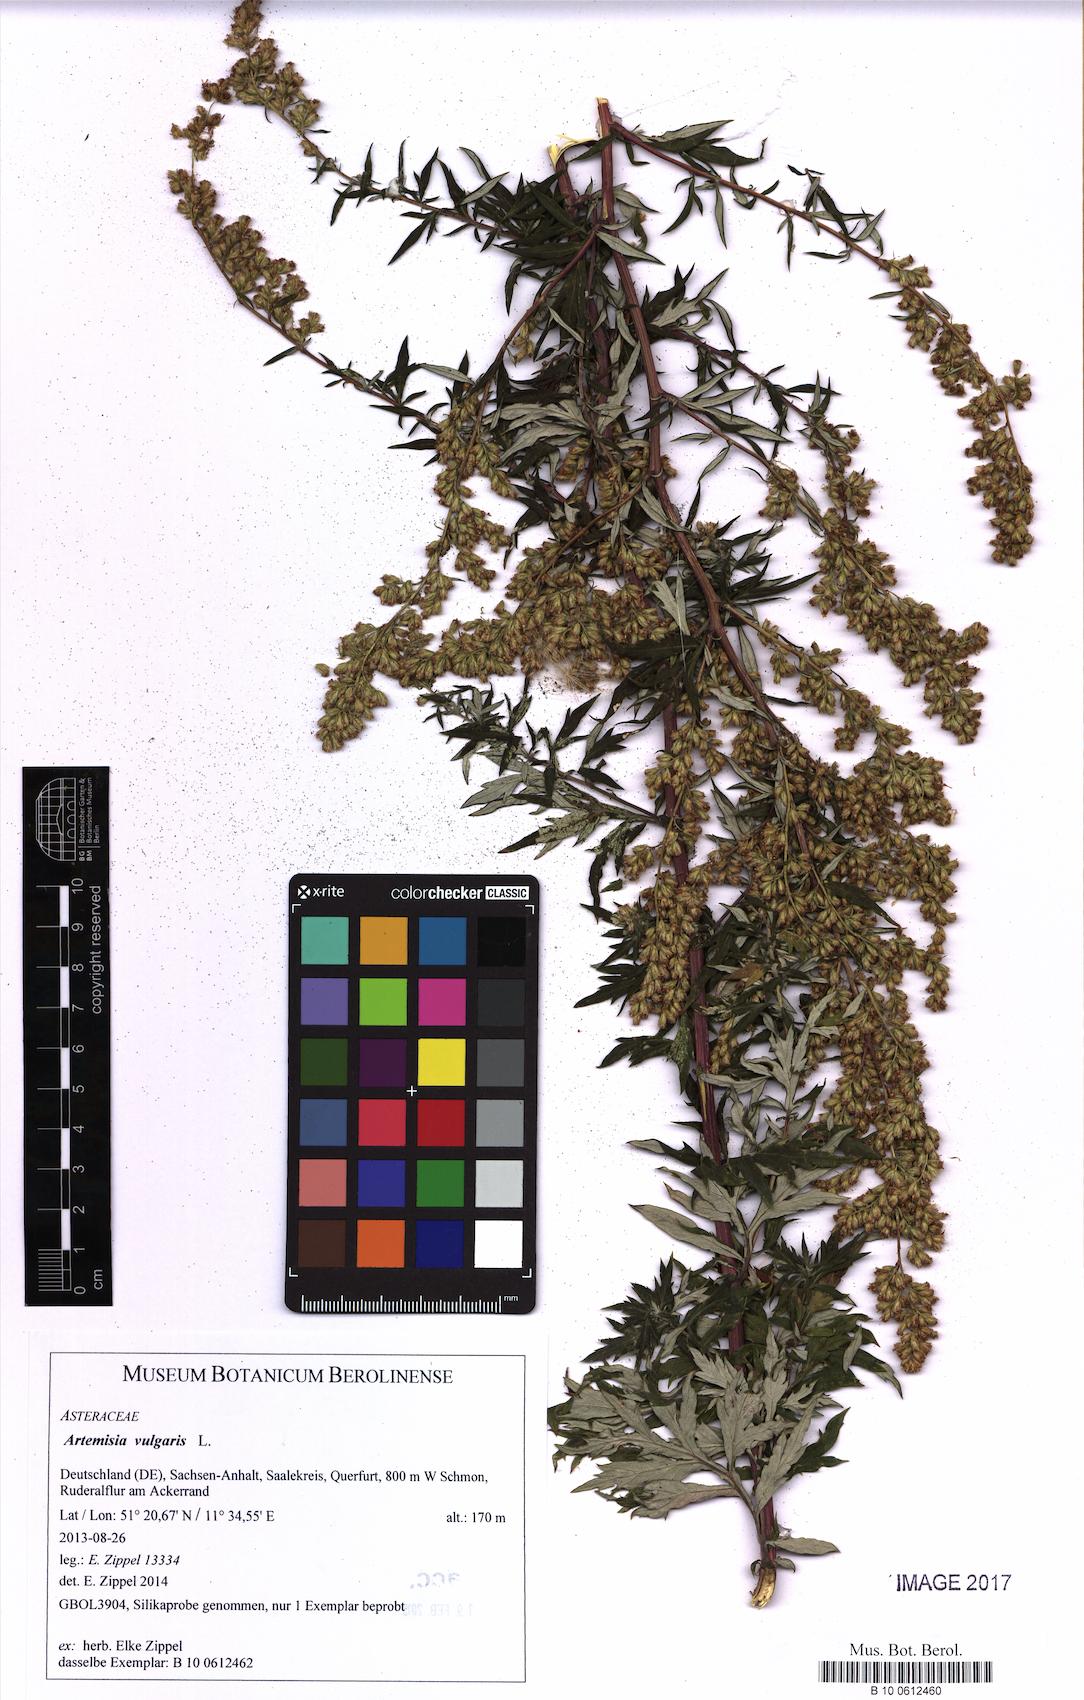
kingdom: Plantae
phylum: Tracheophyta
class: Magnoliopsida
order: Asterales
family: Asteraceae
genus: Artemisia
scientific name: Artemisia vulgaris
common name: Mugwort
